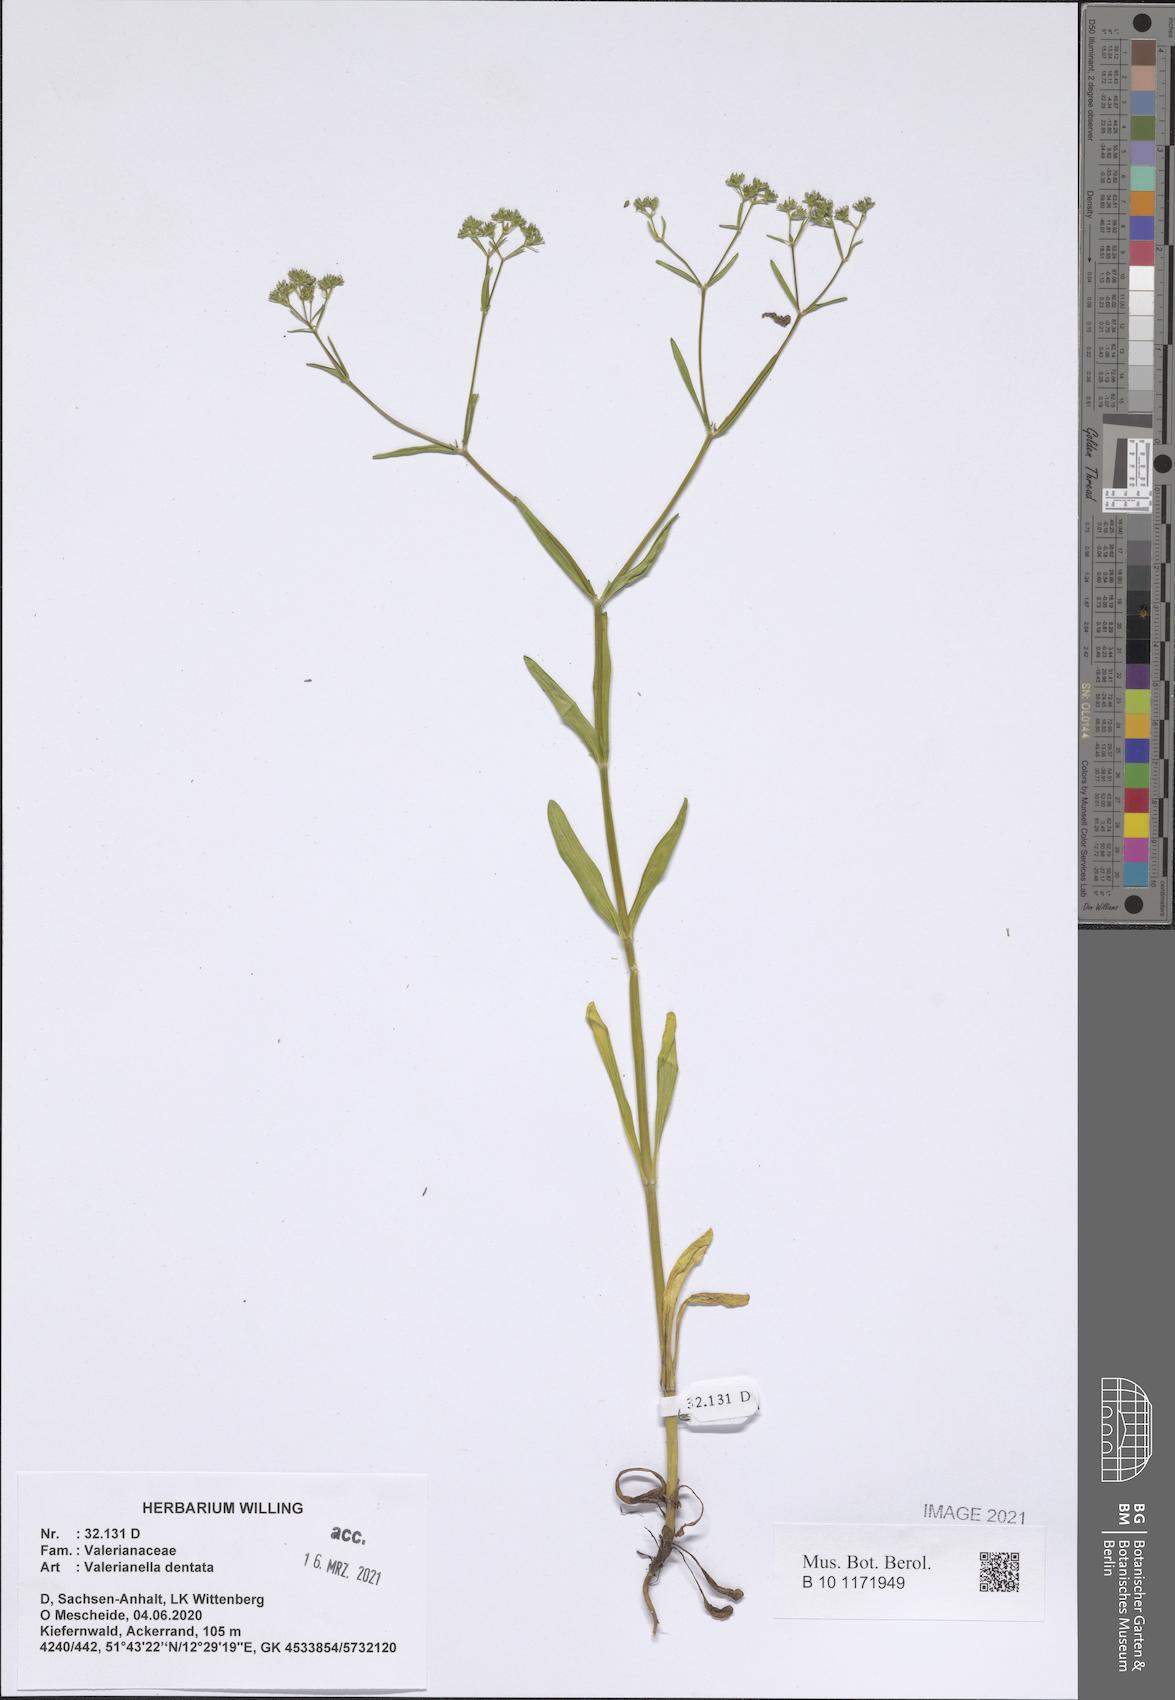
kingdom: Plantae
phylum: Tracheophyta
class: Magnoliopsida
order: Dipsacales
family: Caprifoliaceae
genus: Valerianella
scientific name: Valerianella dentata
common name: Narrow-fruited cornsalad
